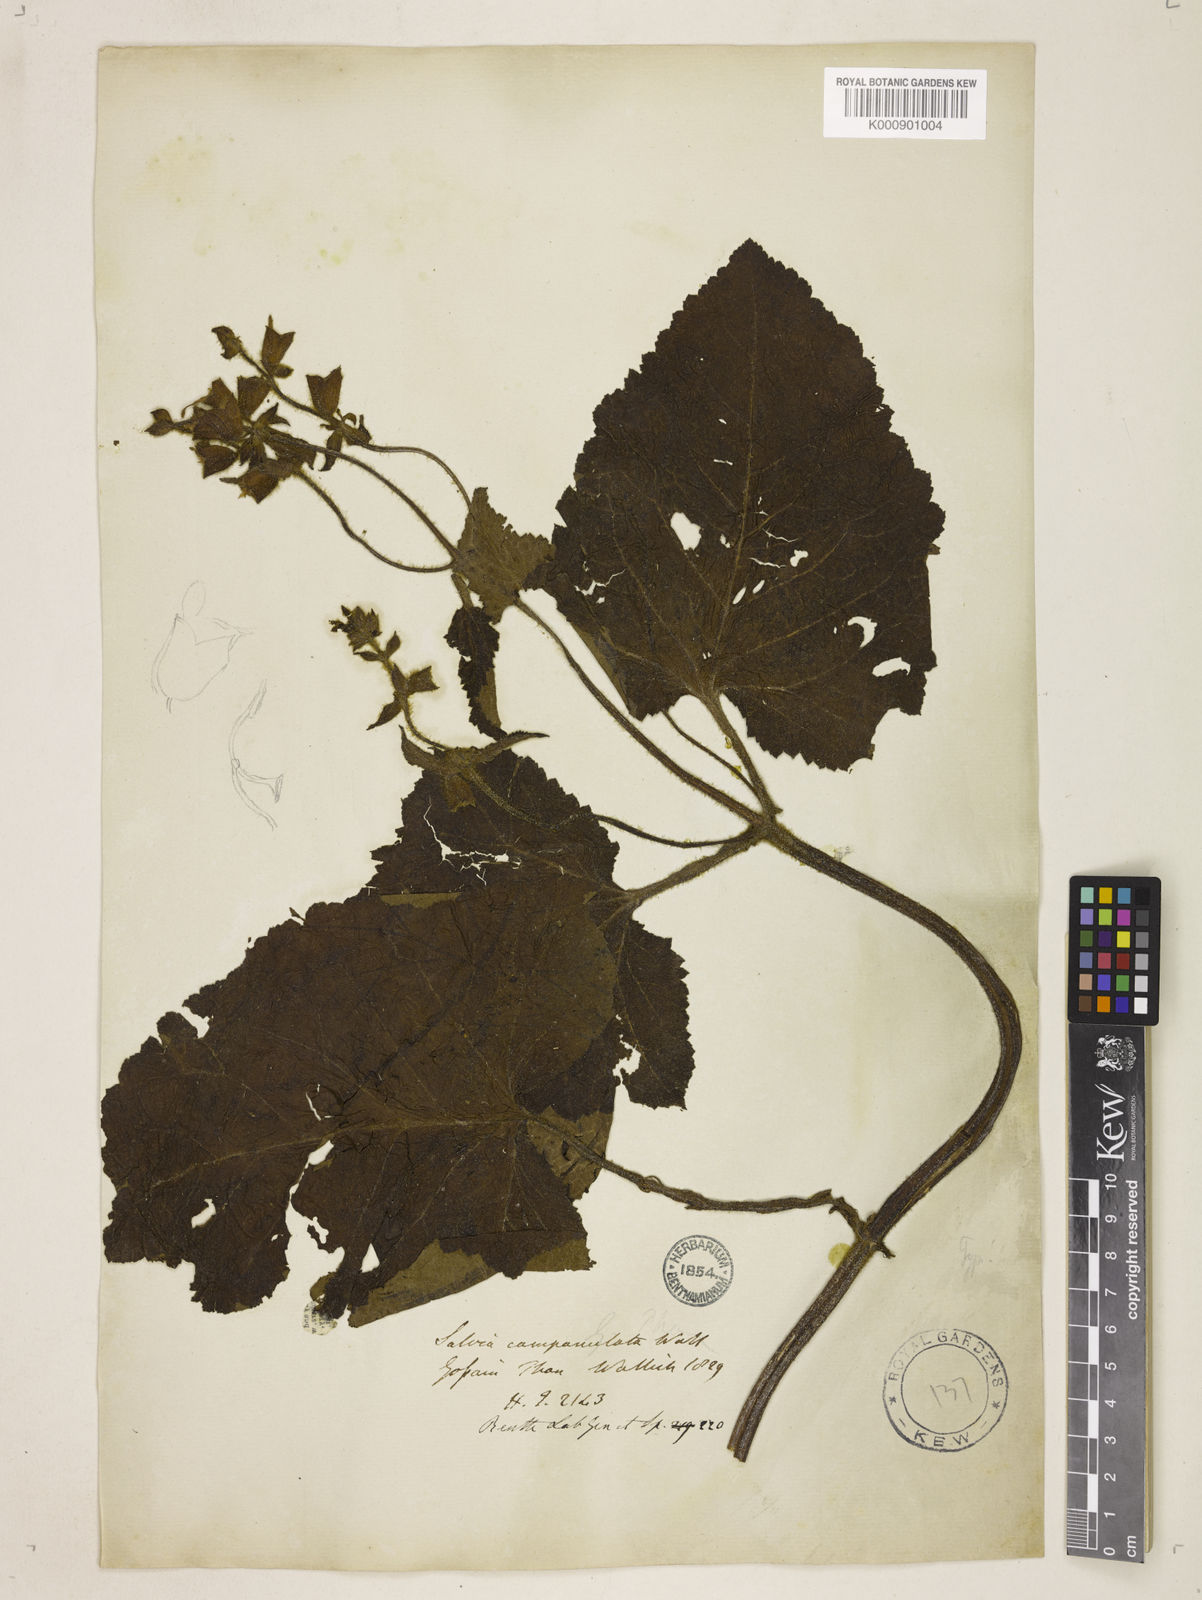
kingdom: Plantae
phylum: Tracheophyta
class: Magnoliopsida
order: Lamiales
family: Lamiaceae
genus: Salvia
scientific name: Salvia campanulata
